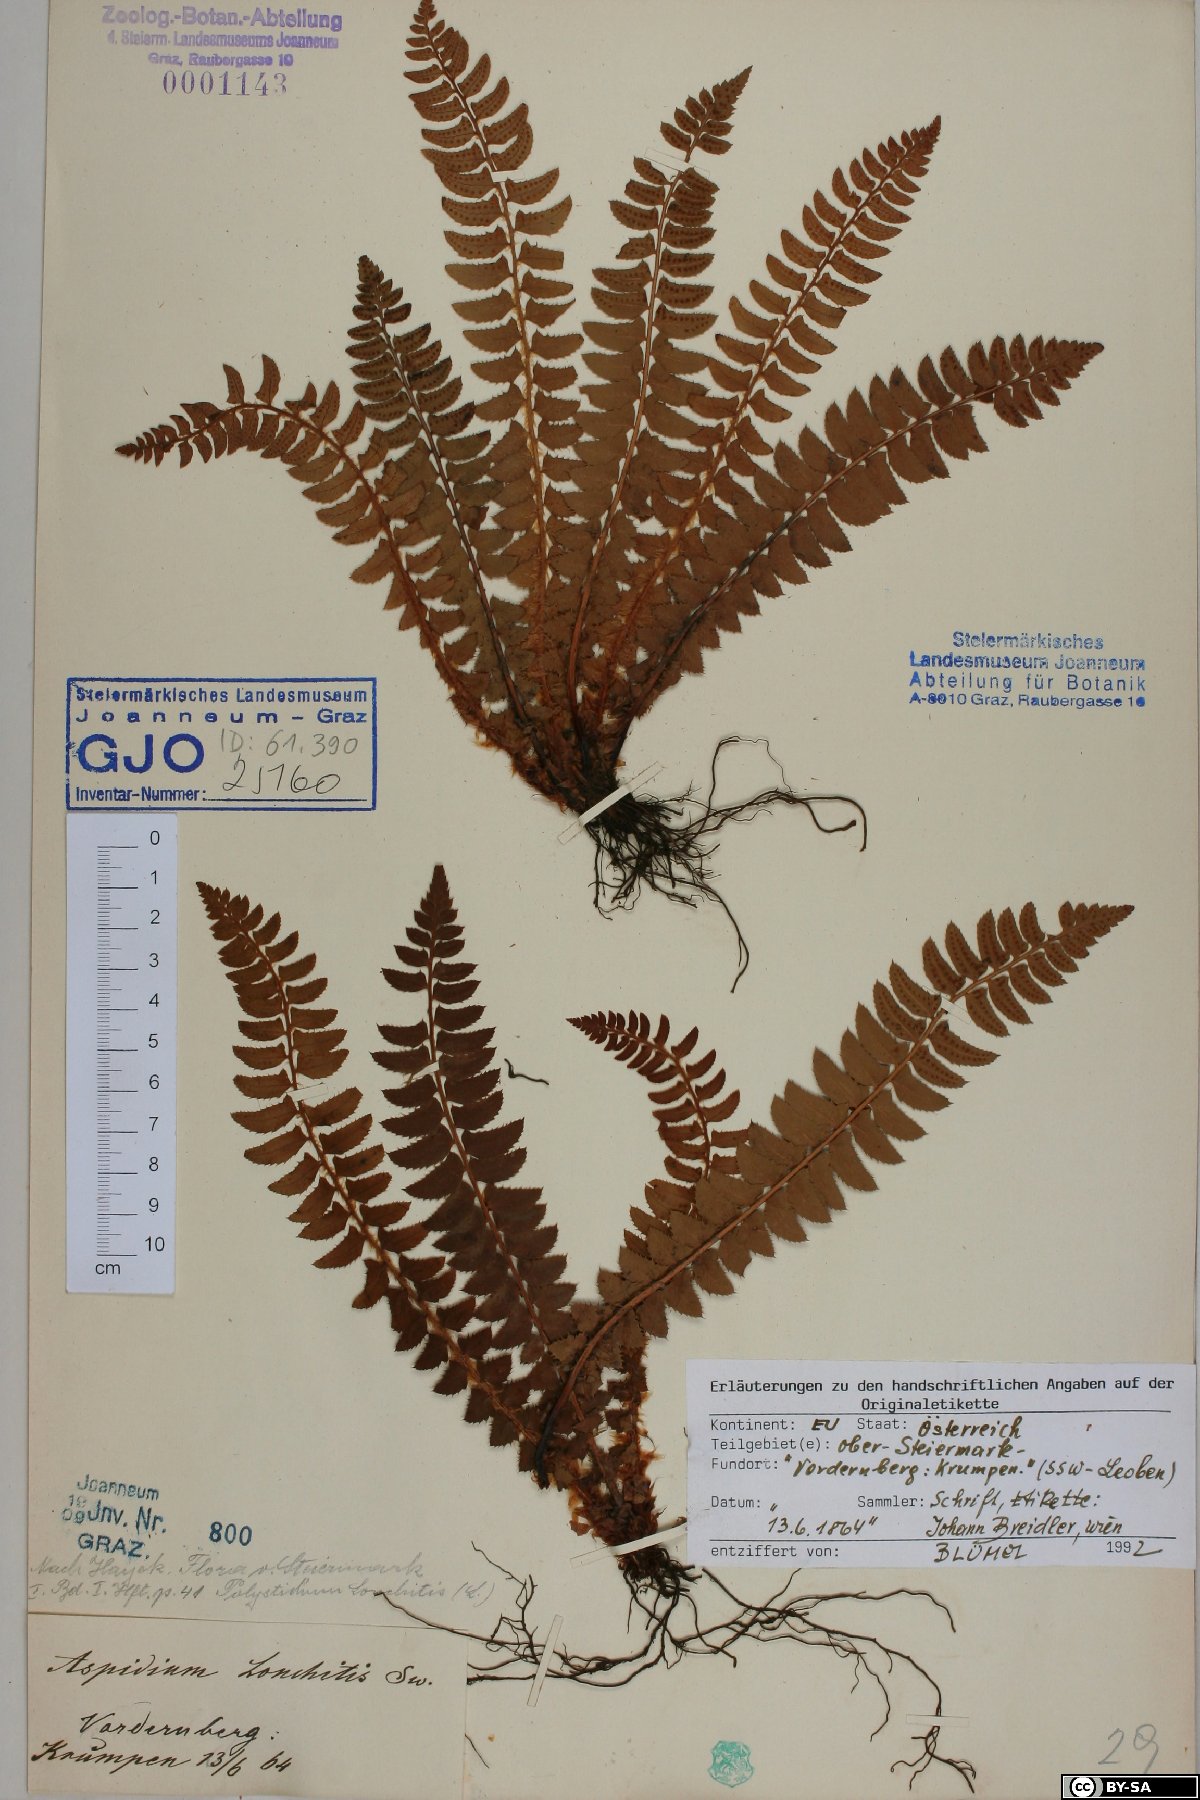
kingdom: Plantae
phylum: Tracheophyta
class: Polypodiopsida
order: Polypodiales
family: Dryopteridaceae
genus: Polystichum
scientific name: Polystichum lonchitis
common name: Holly fern
